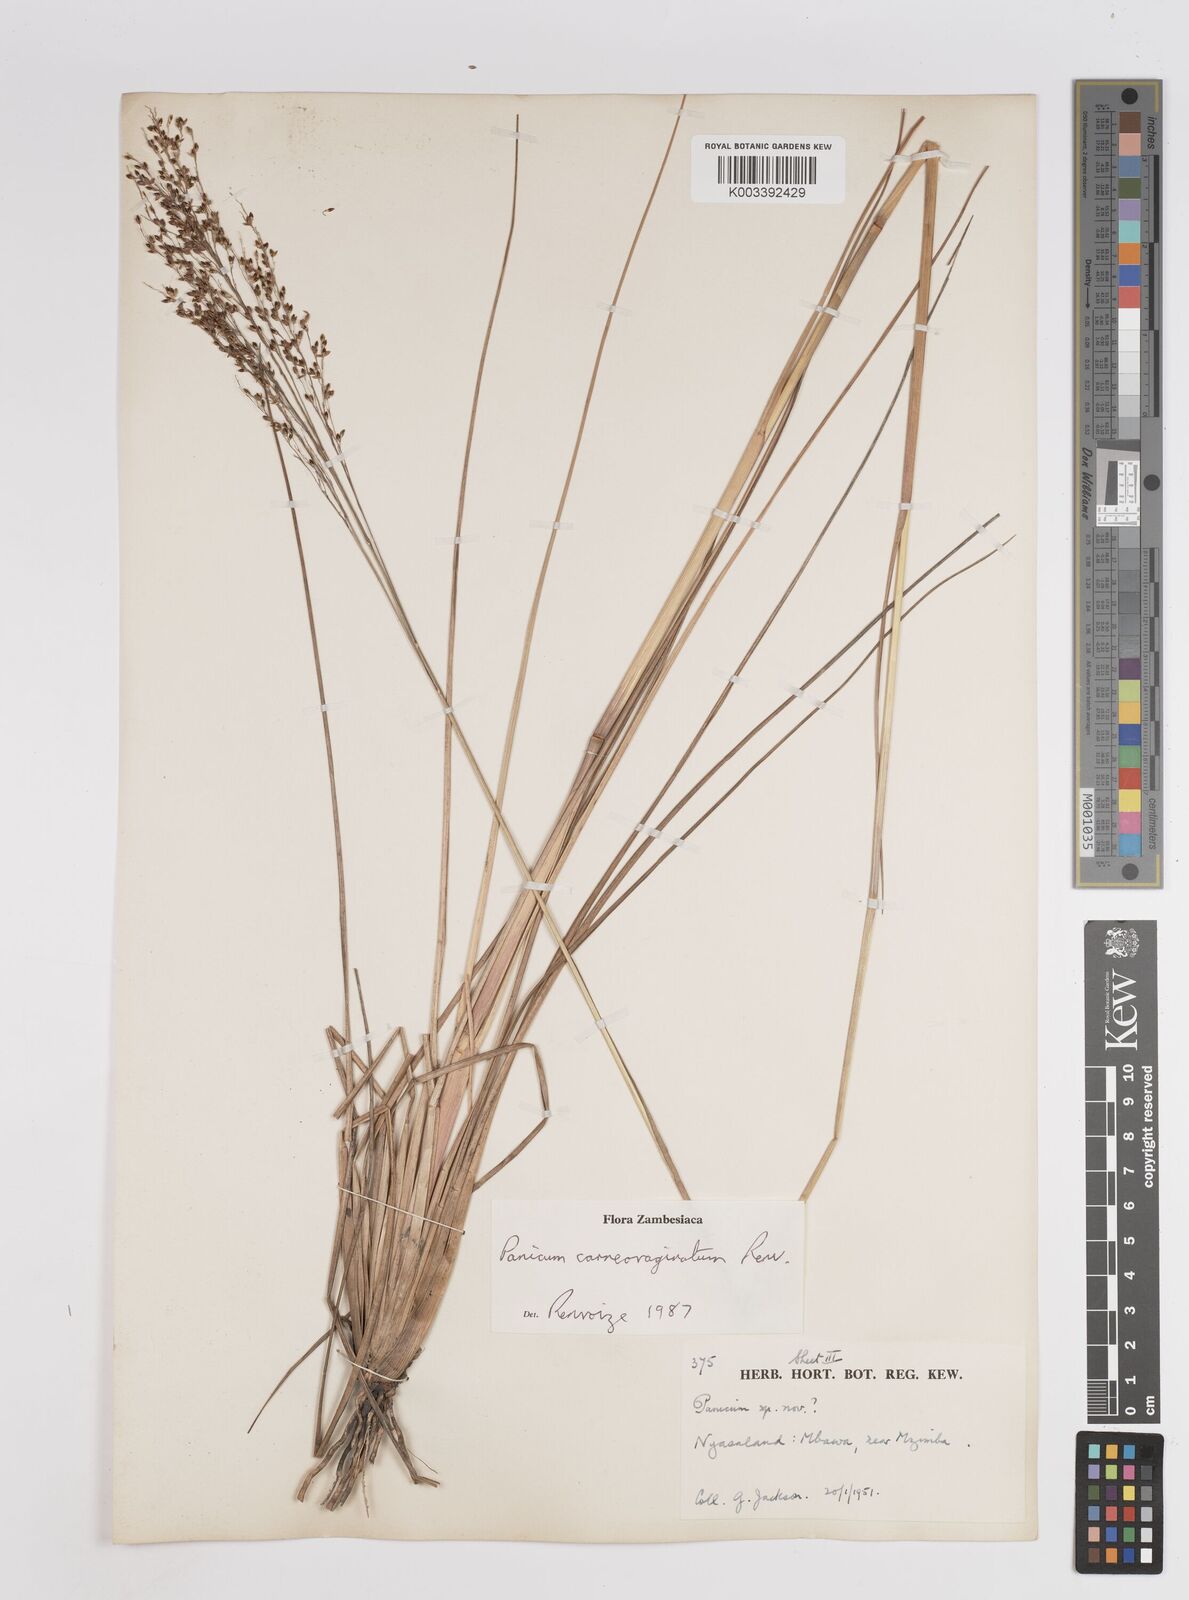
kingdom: Plantae
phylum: Tracheophyta
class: Liliopsida
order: Poales
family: Poaceae
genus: Panicum
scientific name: Panicum carneovaginatum
